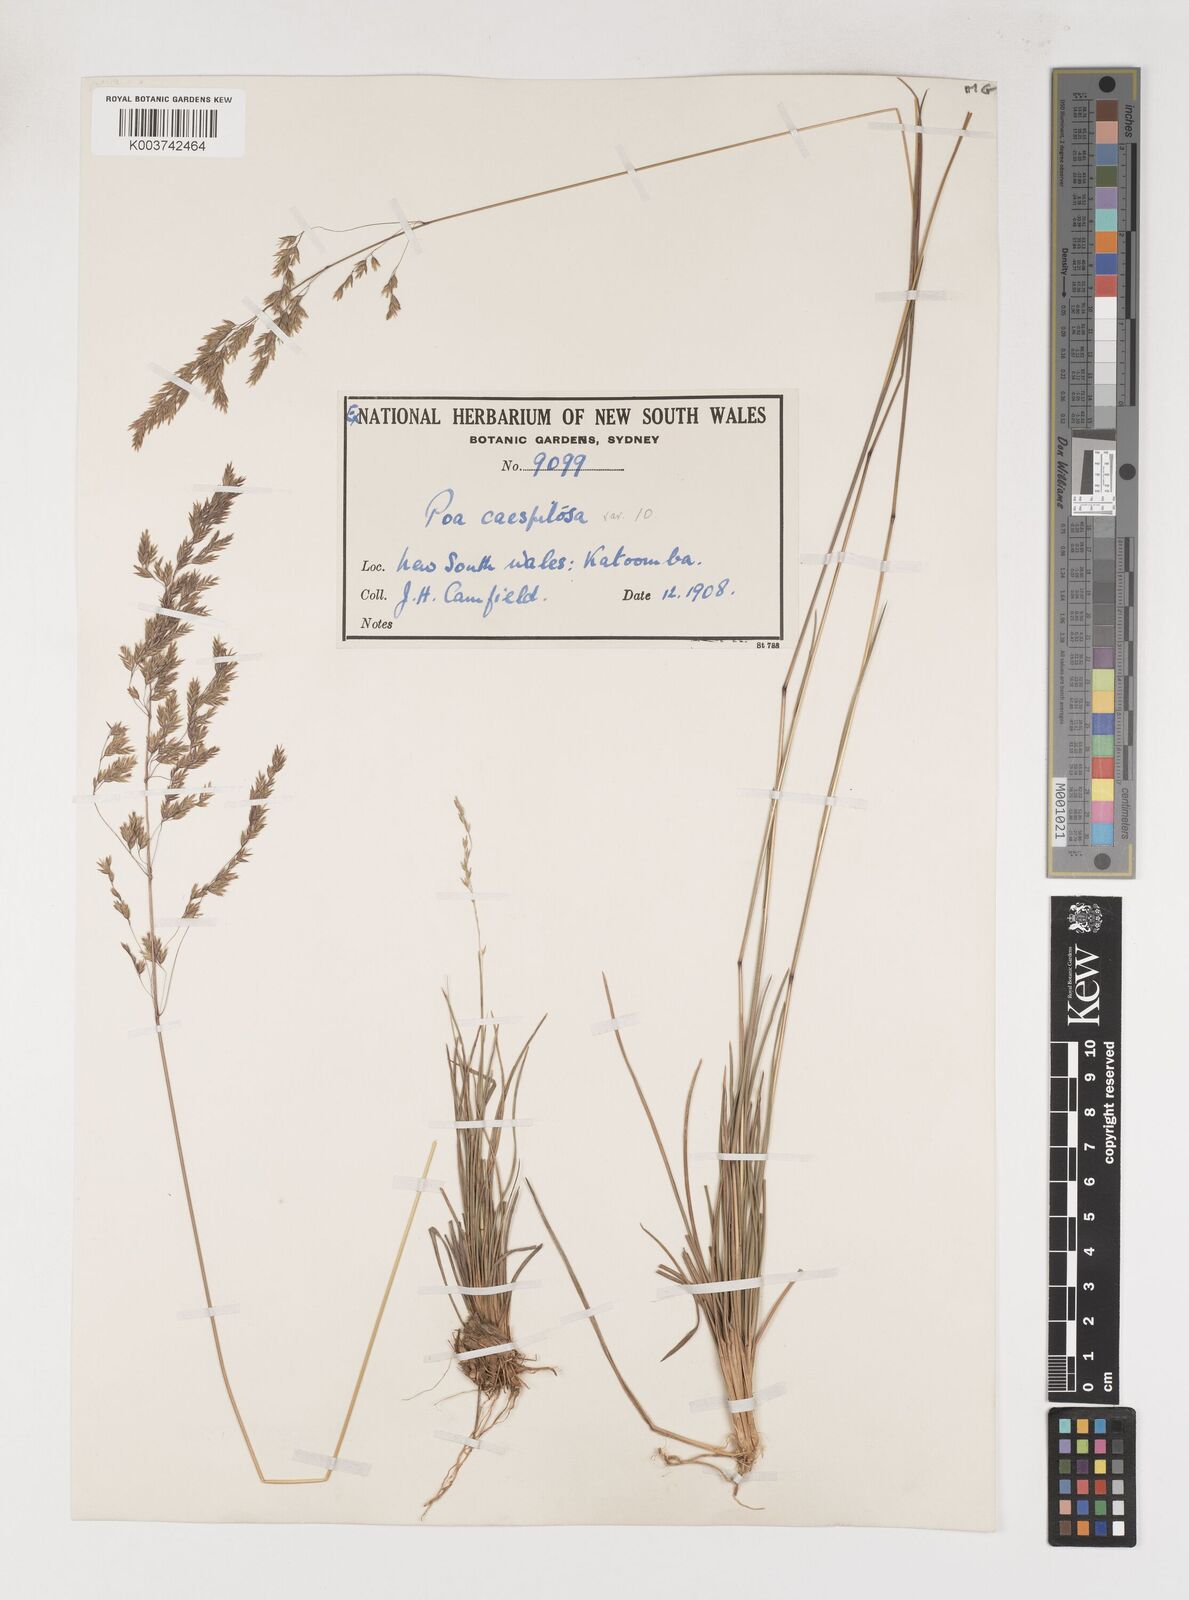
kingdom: Plantae
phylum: Tracheophyta
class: Liliopsida
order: Poales
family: Poaceae
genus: Poa
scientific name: Poa
